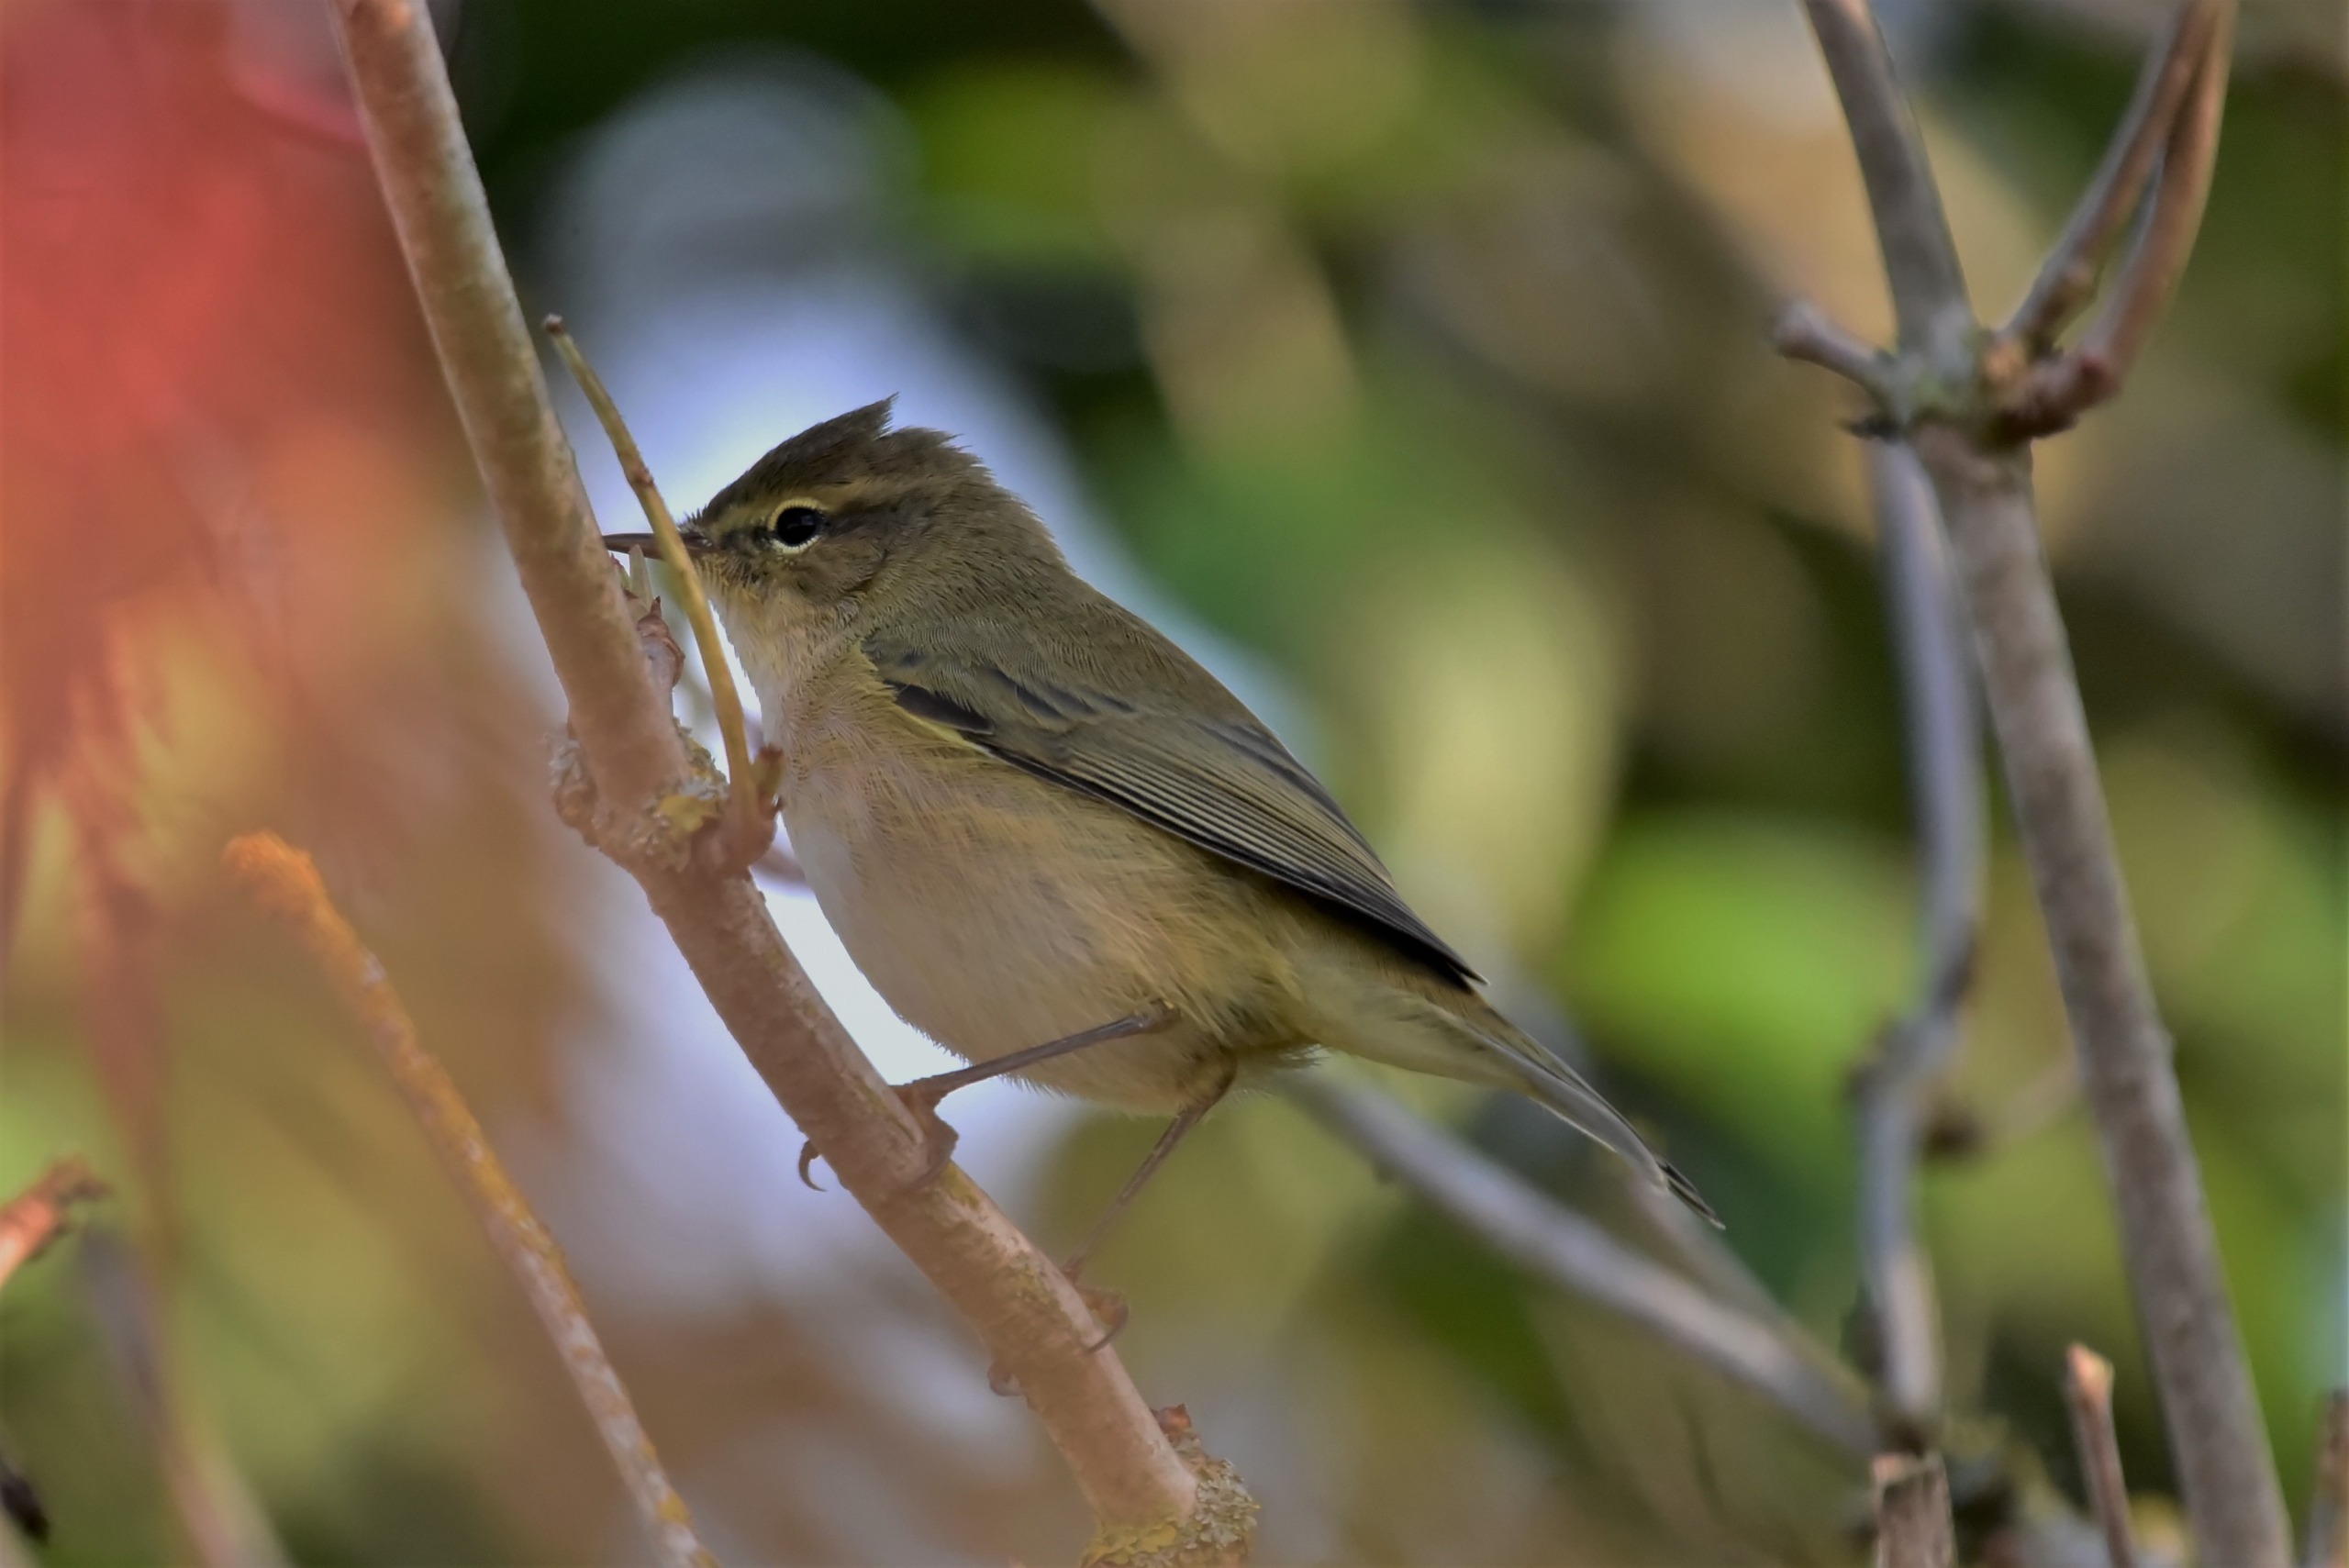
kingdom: Animalia
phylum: Chordata
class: Aves
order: Passeriformes
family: Phylloscopidae
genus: Phylloscopus
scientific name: Phylloscopus collybita
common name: Gransanger
